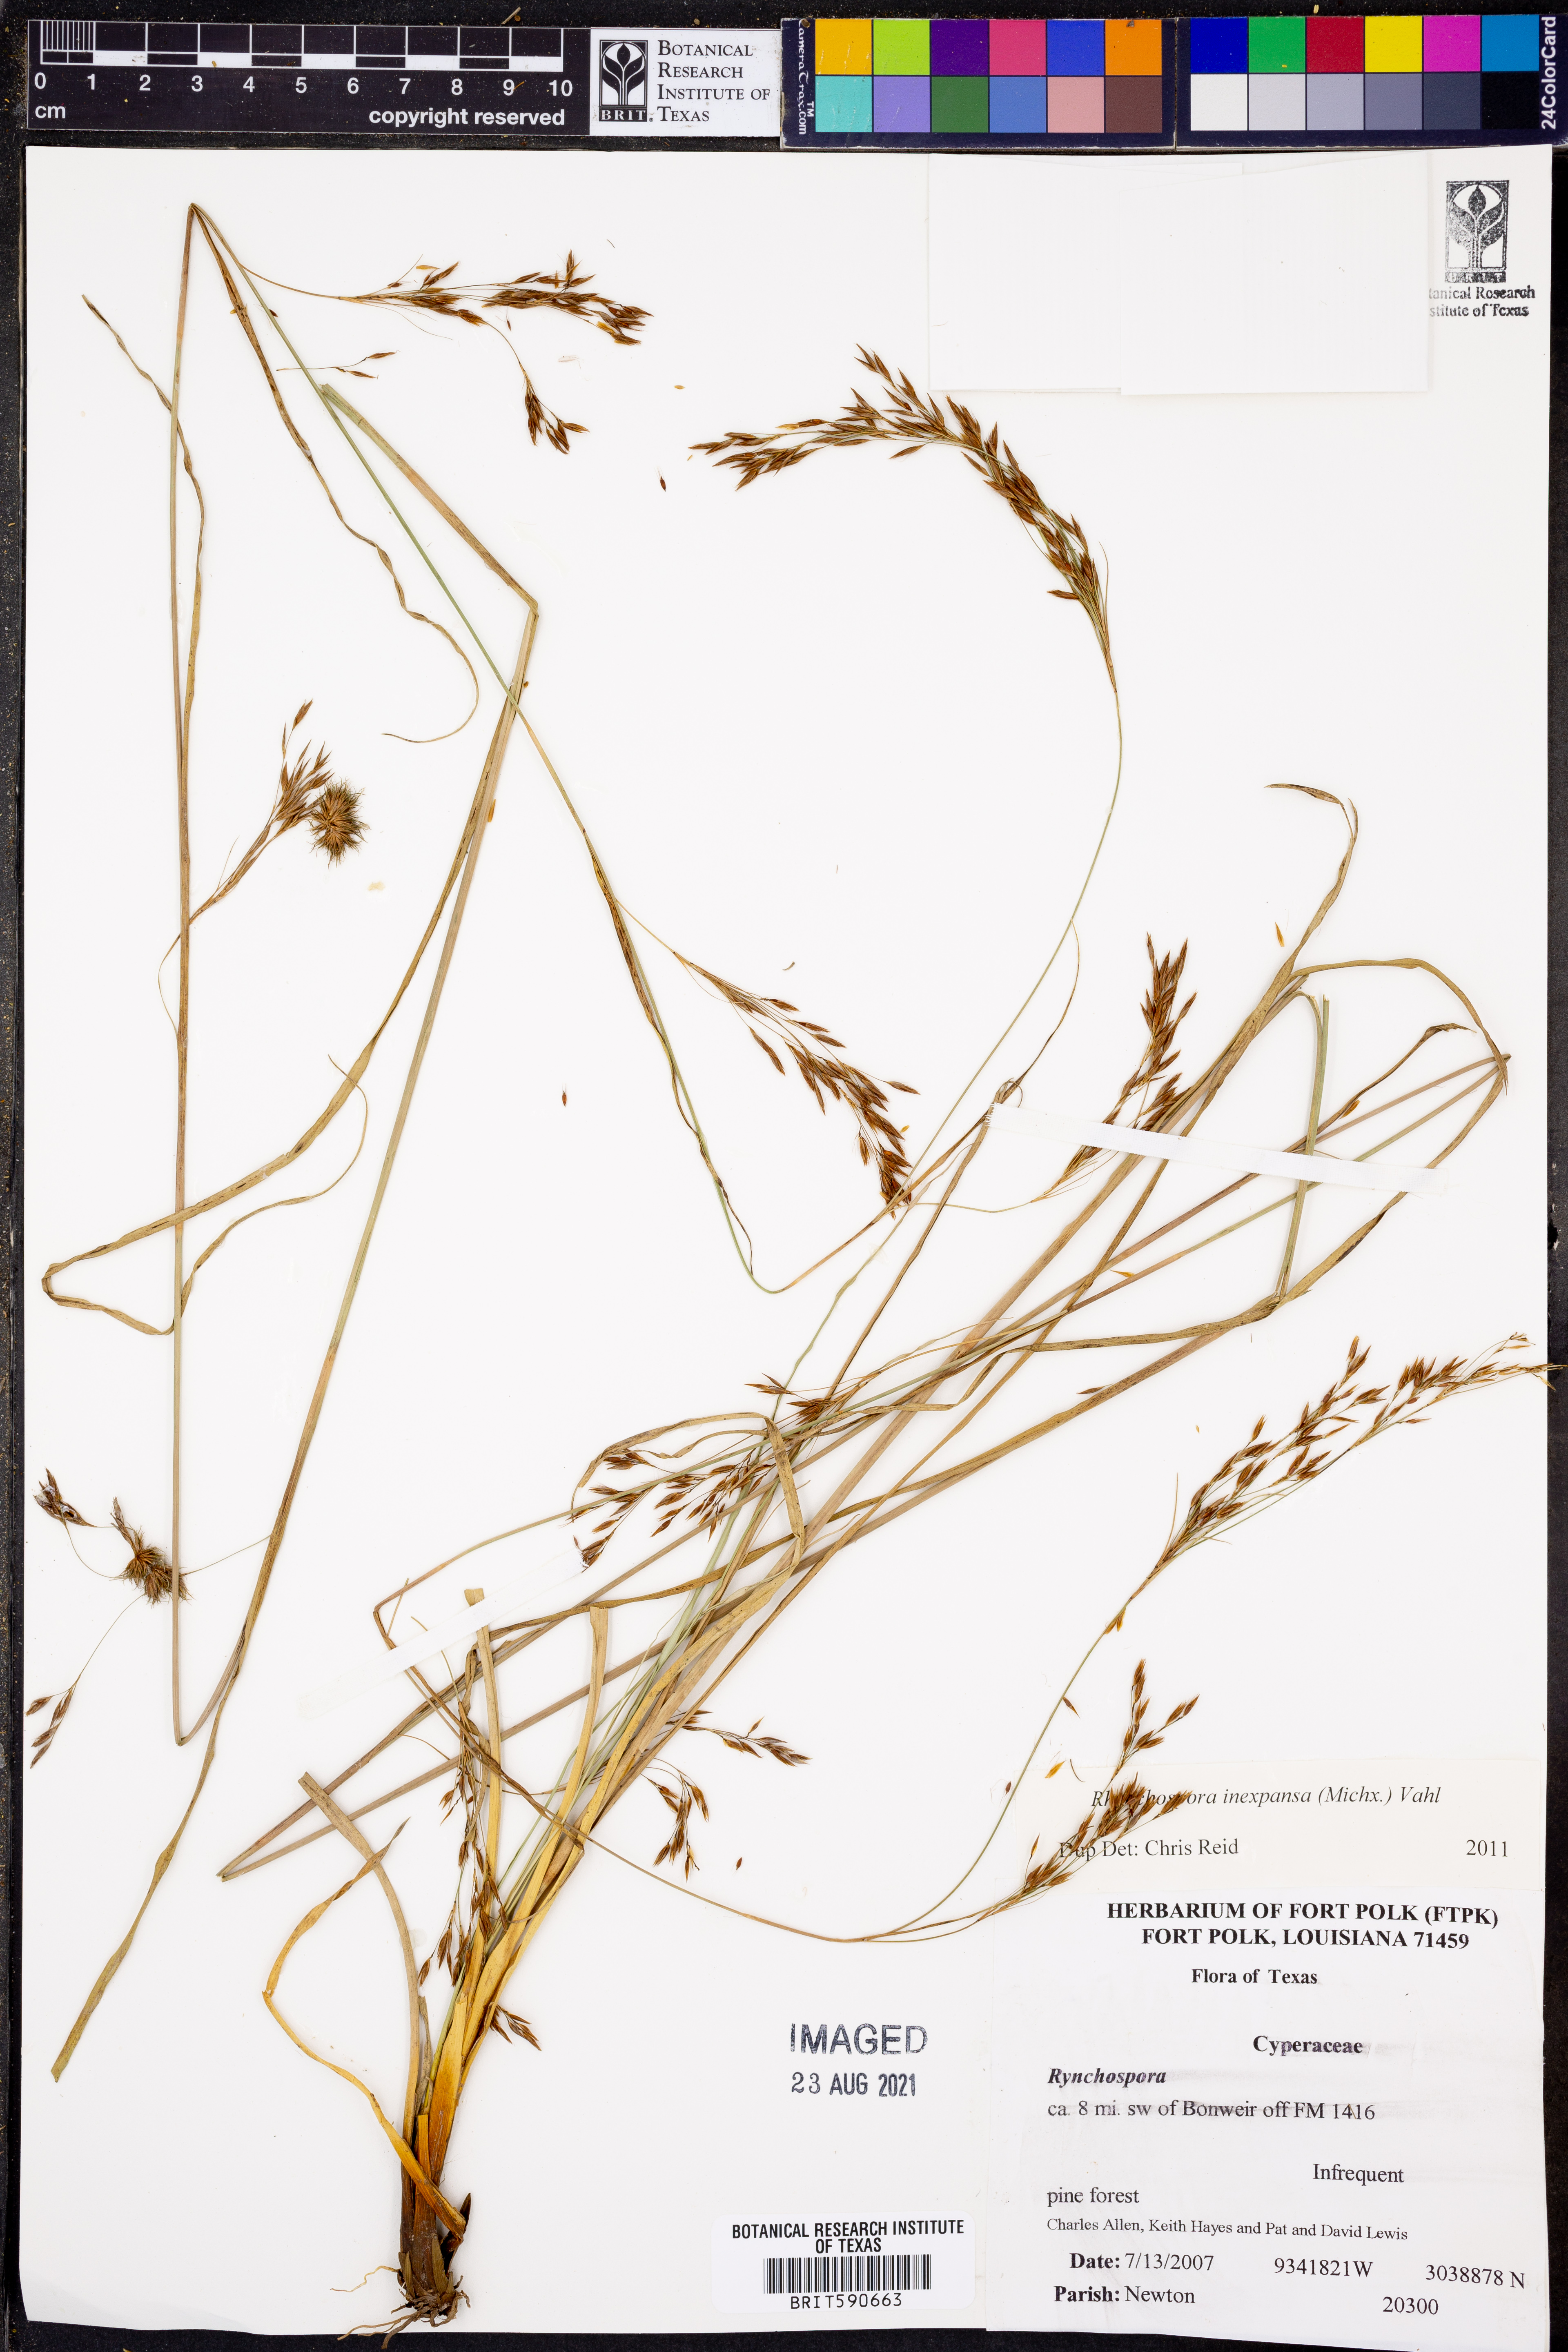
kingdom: Plantae
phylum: Tracheophyta
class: Liliopsida
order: Poales
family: Cyperaceae
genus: Rhynchospora
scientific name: Rhynchospora inexpansa
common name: Nodding beaksedge
